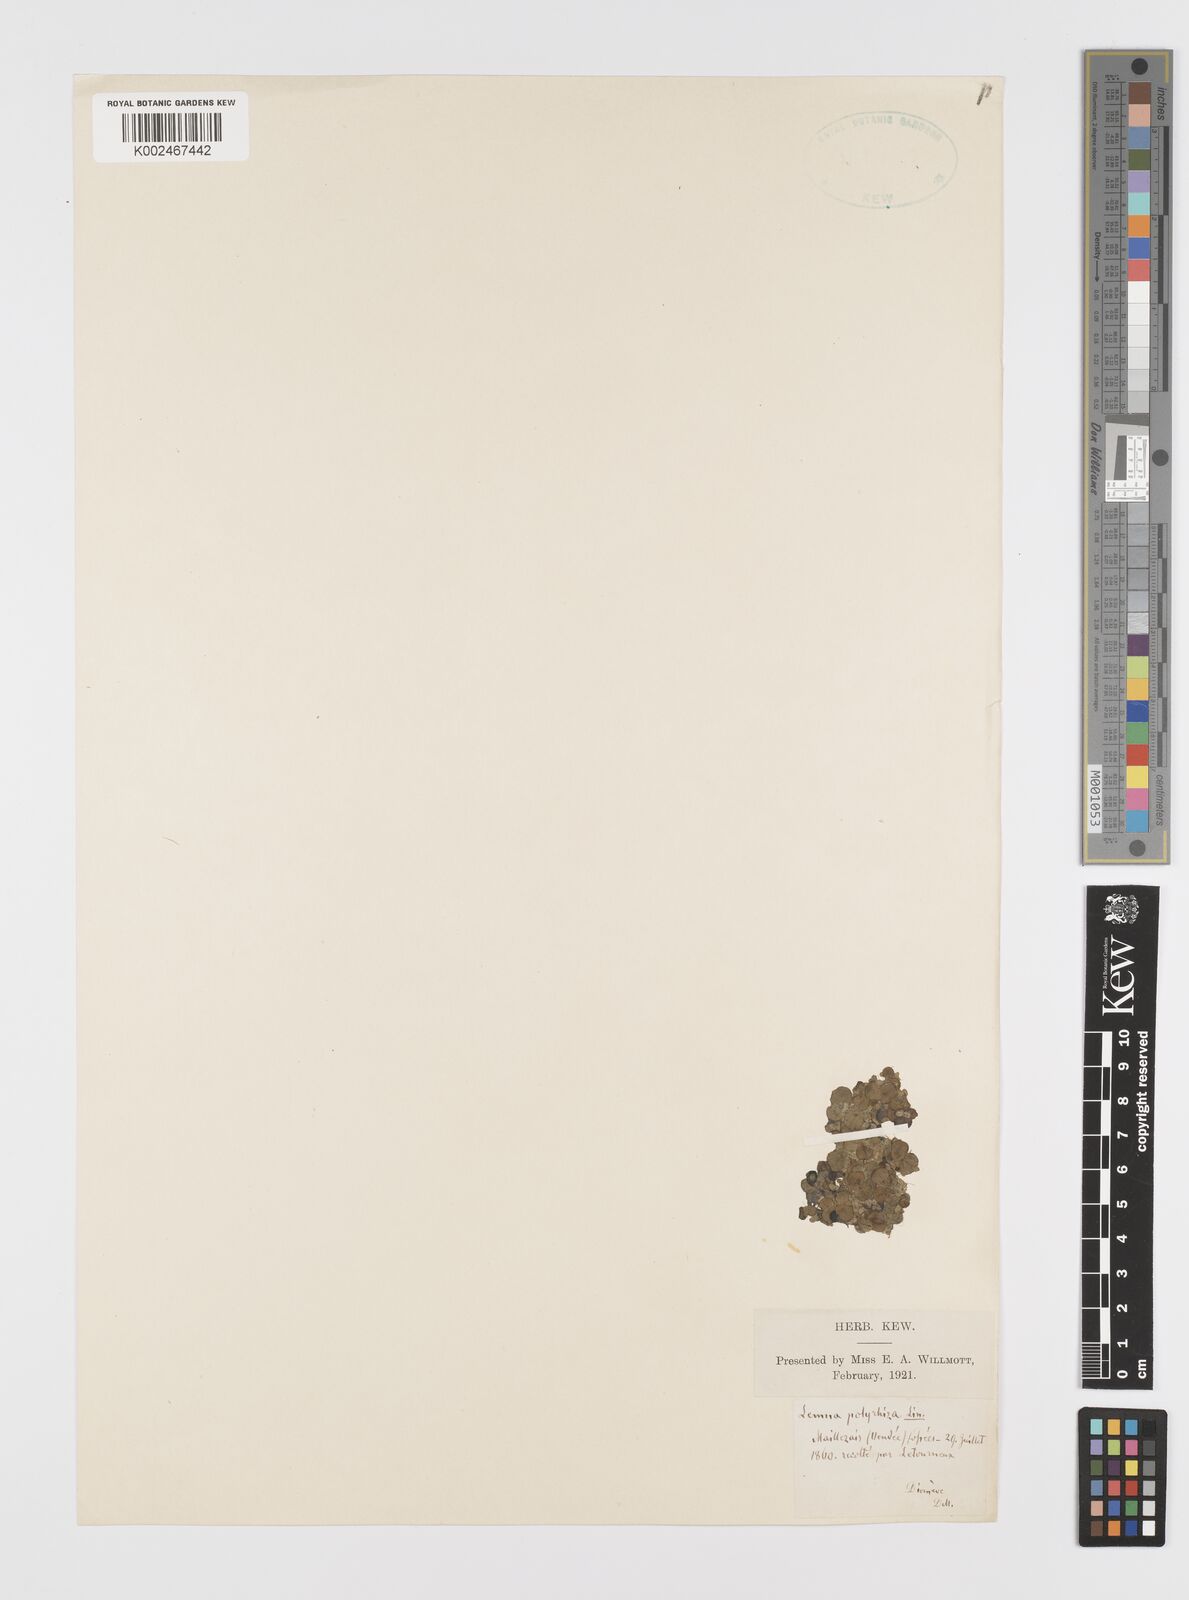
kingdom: Plantae
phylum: Tracheophyta
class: Liliopsida
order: Alismatales
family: Araceae
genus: Spirodela
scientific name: Spirodela polyrhiza
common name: Great duckweed
